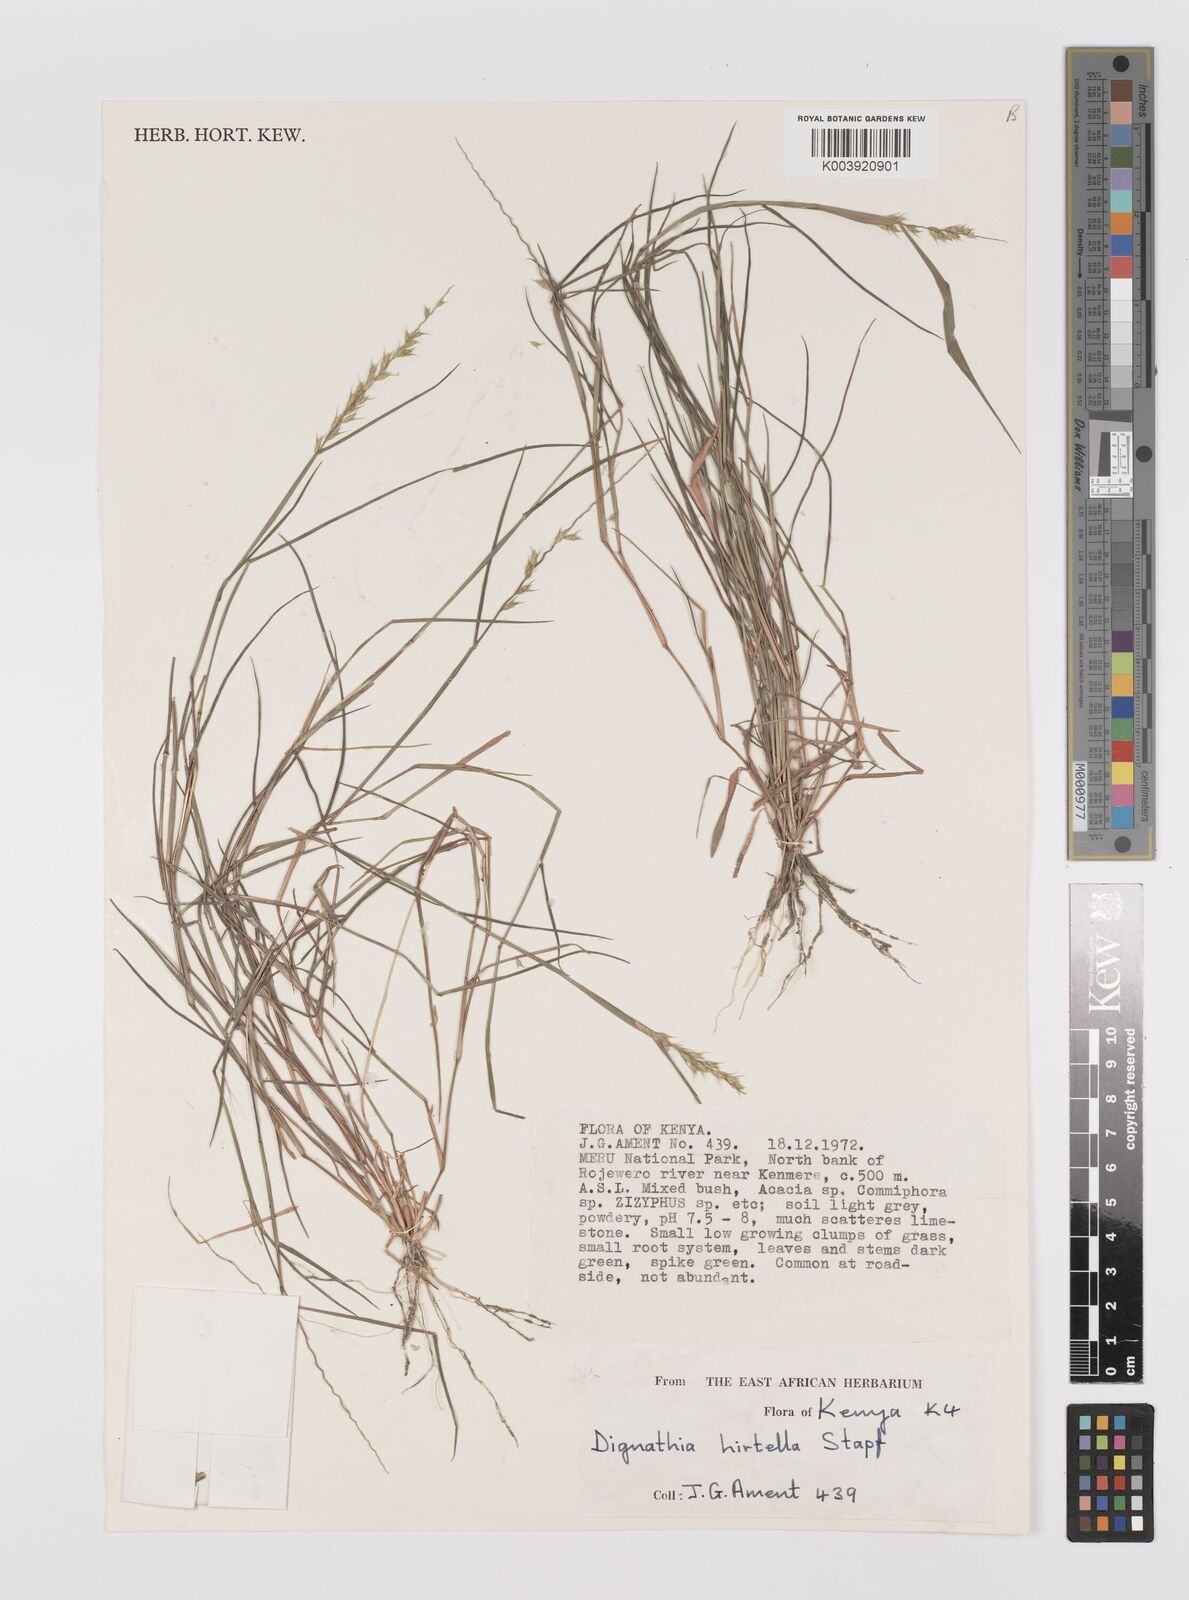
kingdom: Plantae
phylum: Tracheophyta
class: Liliopsida
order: Poales
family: Poaceae
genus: Dignathia
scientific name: Dignathia hirtella
